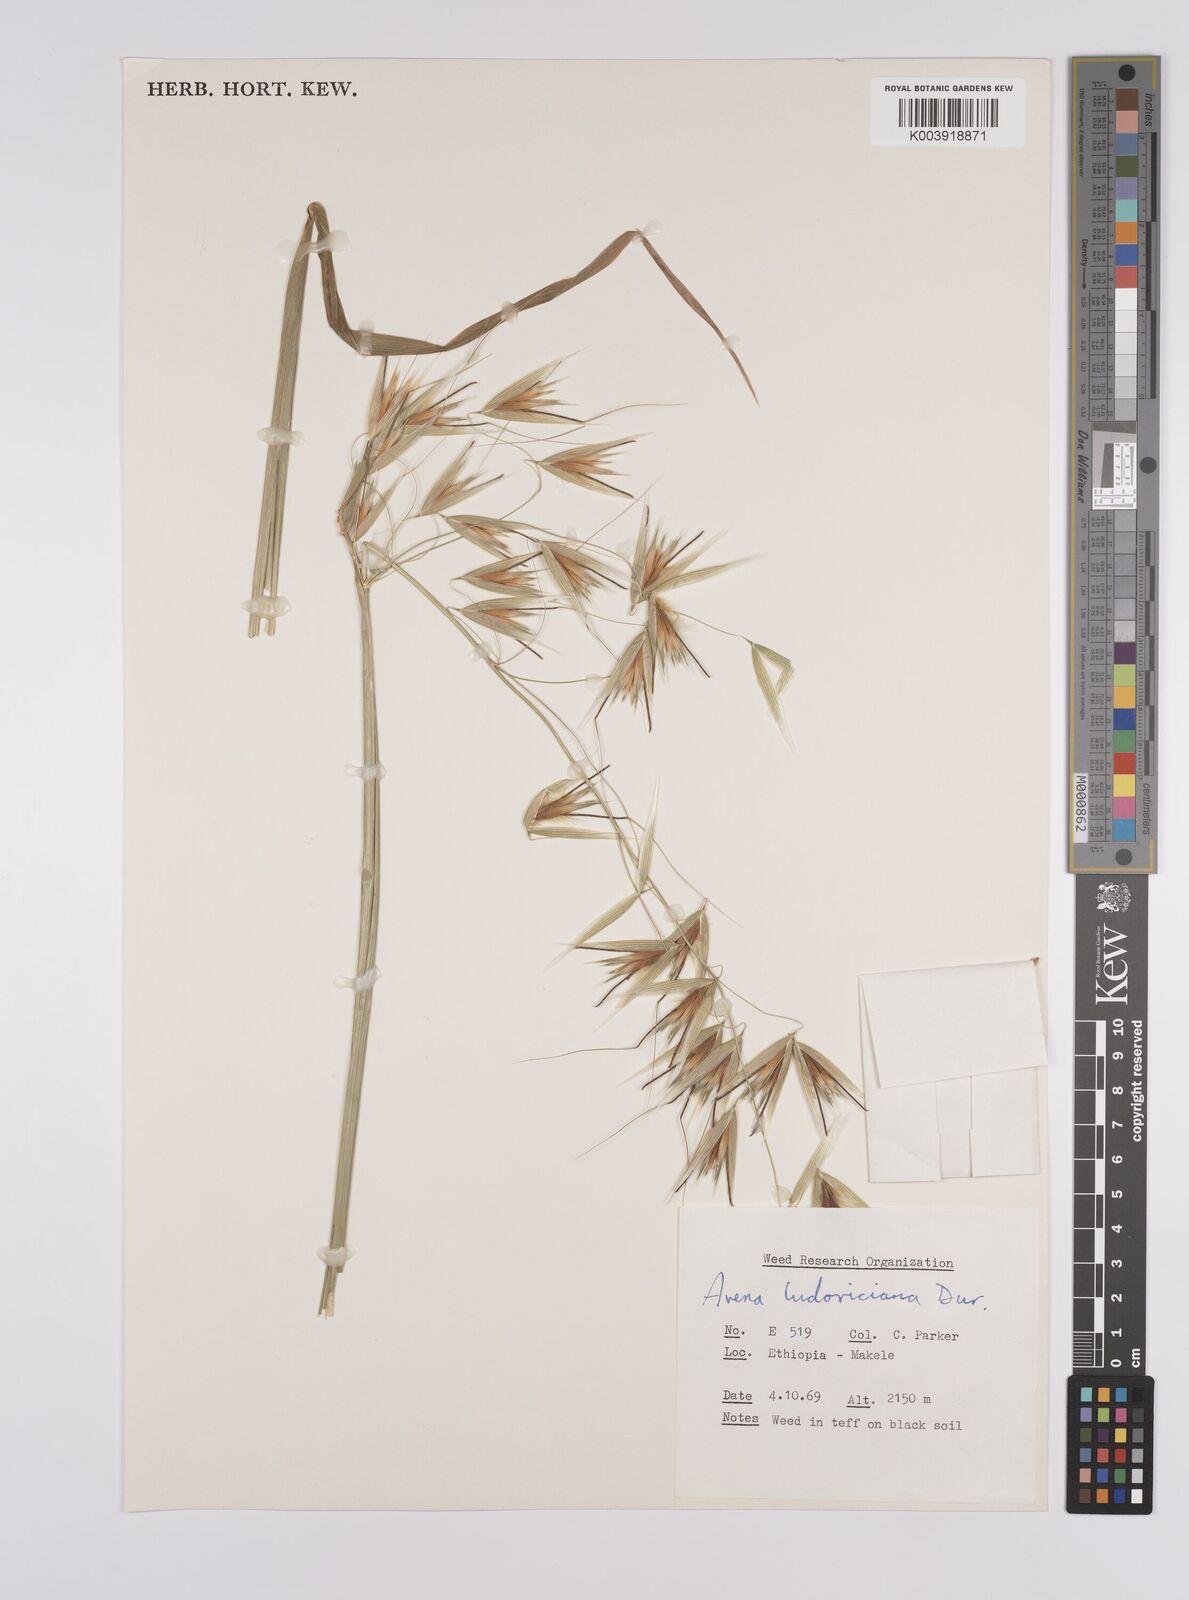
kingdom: Plantae
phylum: Tracheophyta
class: Liliopsida
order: Poales
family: Poaceae
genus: Avena
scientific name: Avena sterilis
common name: Animated oat
